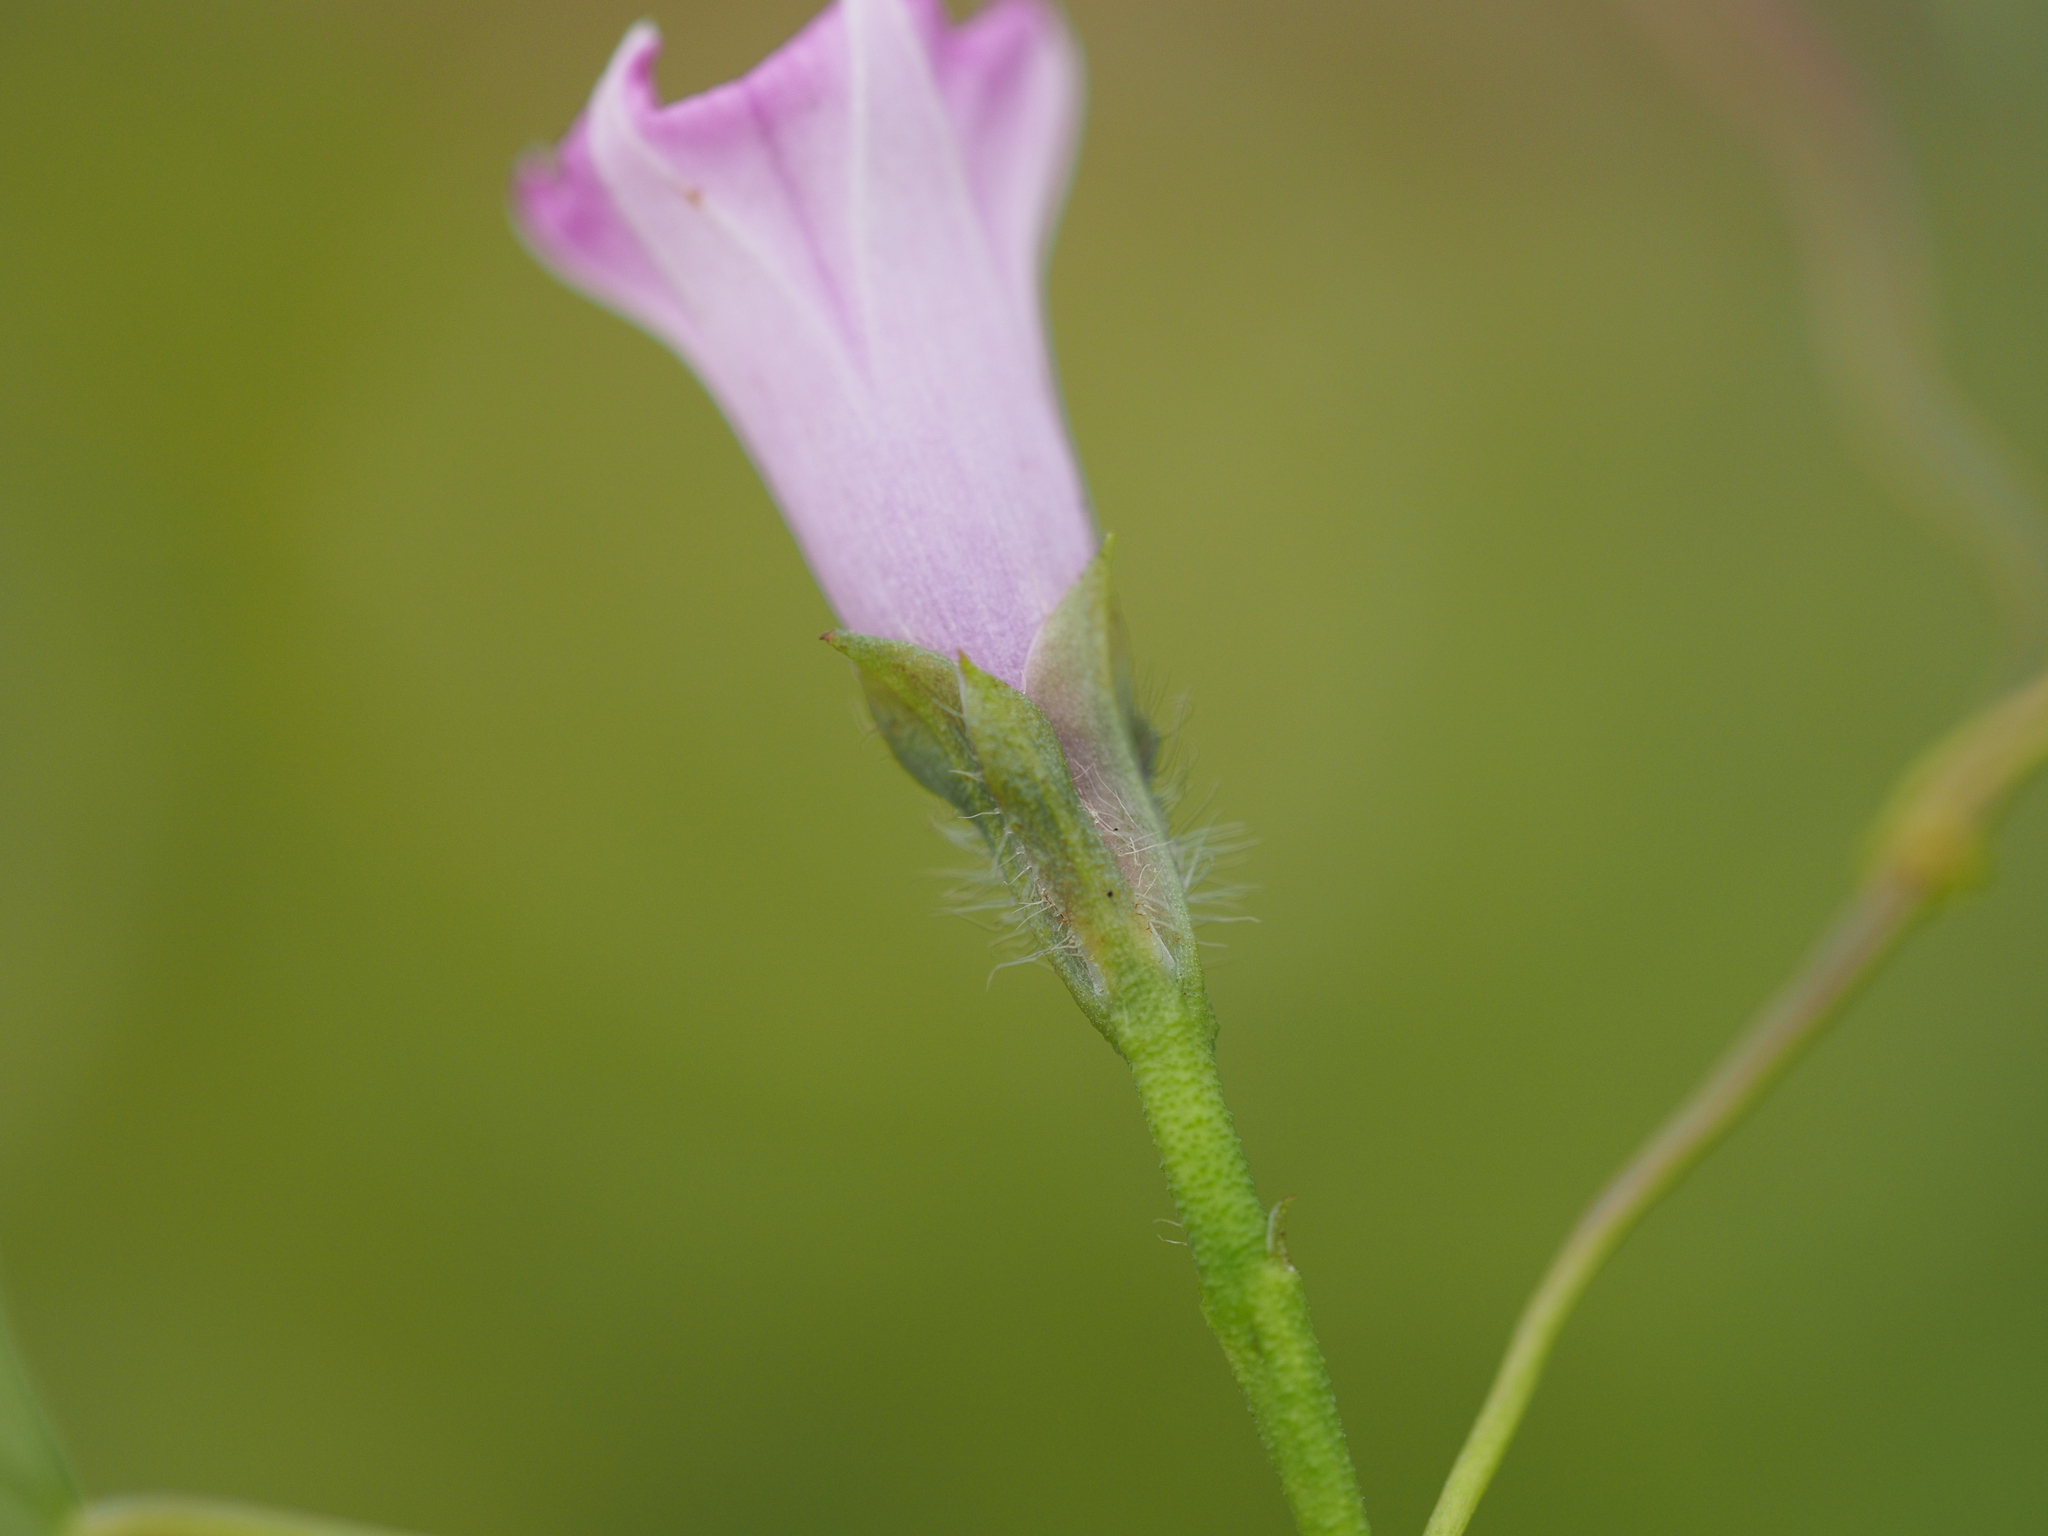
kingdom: Plantae
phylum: Tracheophyta
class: Magnoliopsida
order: Solanales
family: Convolvulaceae
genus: Ipomoea
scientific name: Ipomoea triloba
